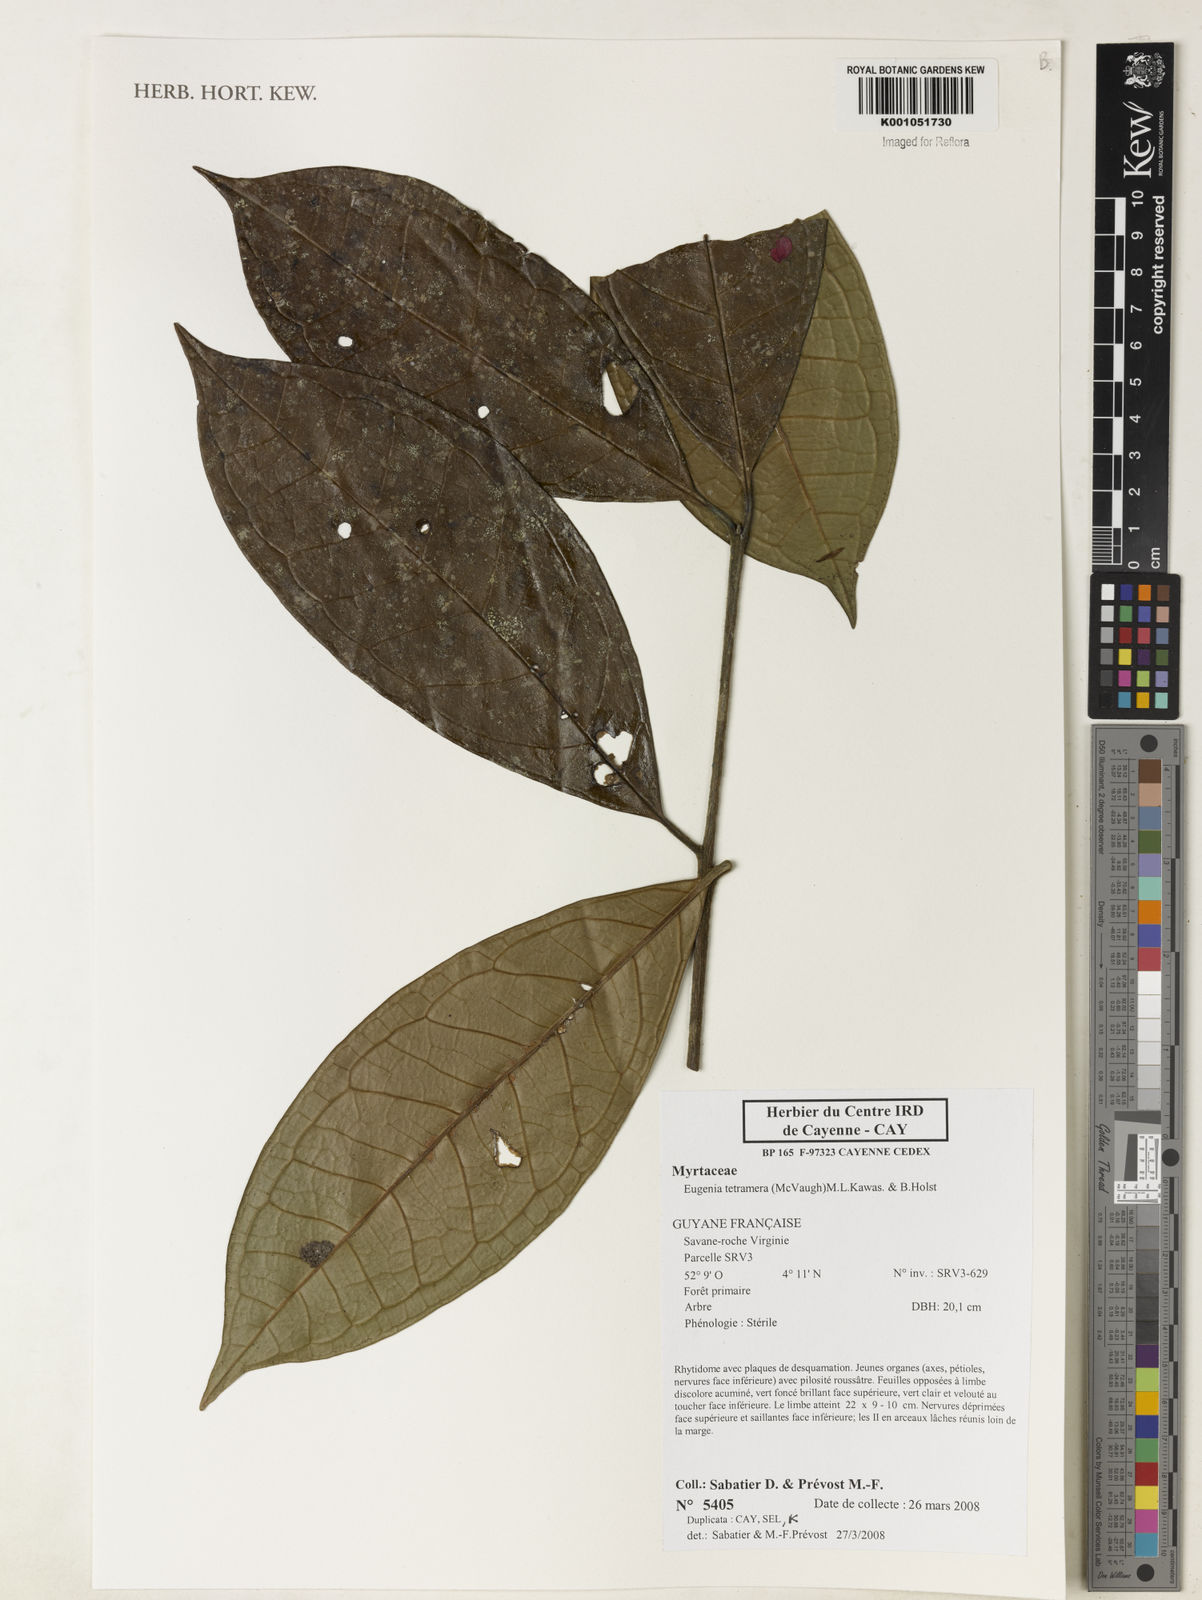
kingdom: Plantae
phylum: Tracheophyta
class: Magnoliopsida
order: Myrtales
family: Myrtaceae
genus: Eugenia
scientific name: Eugenia tetramera
